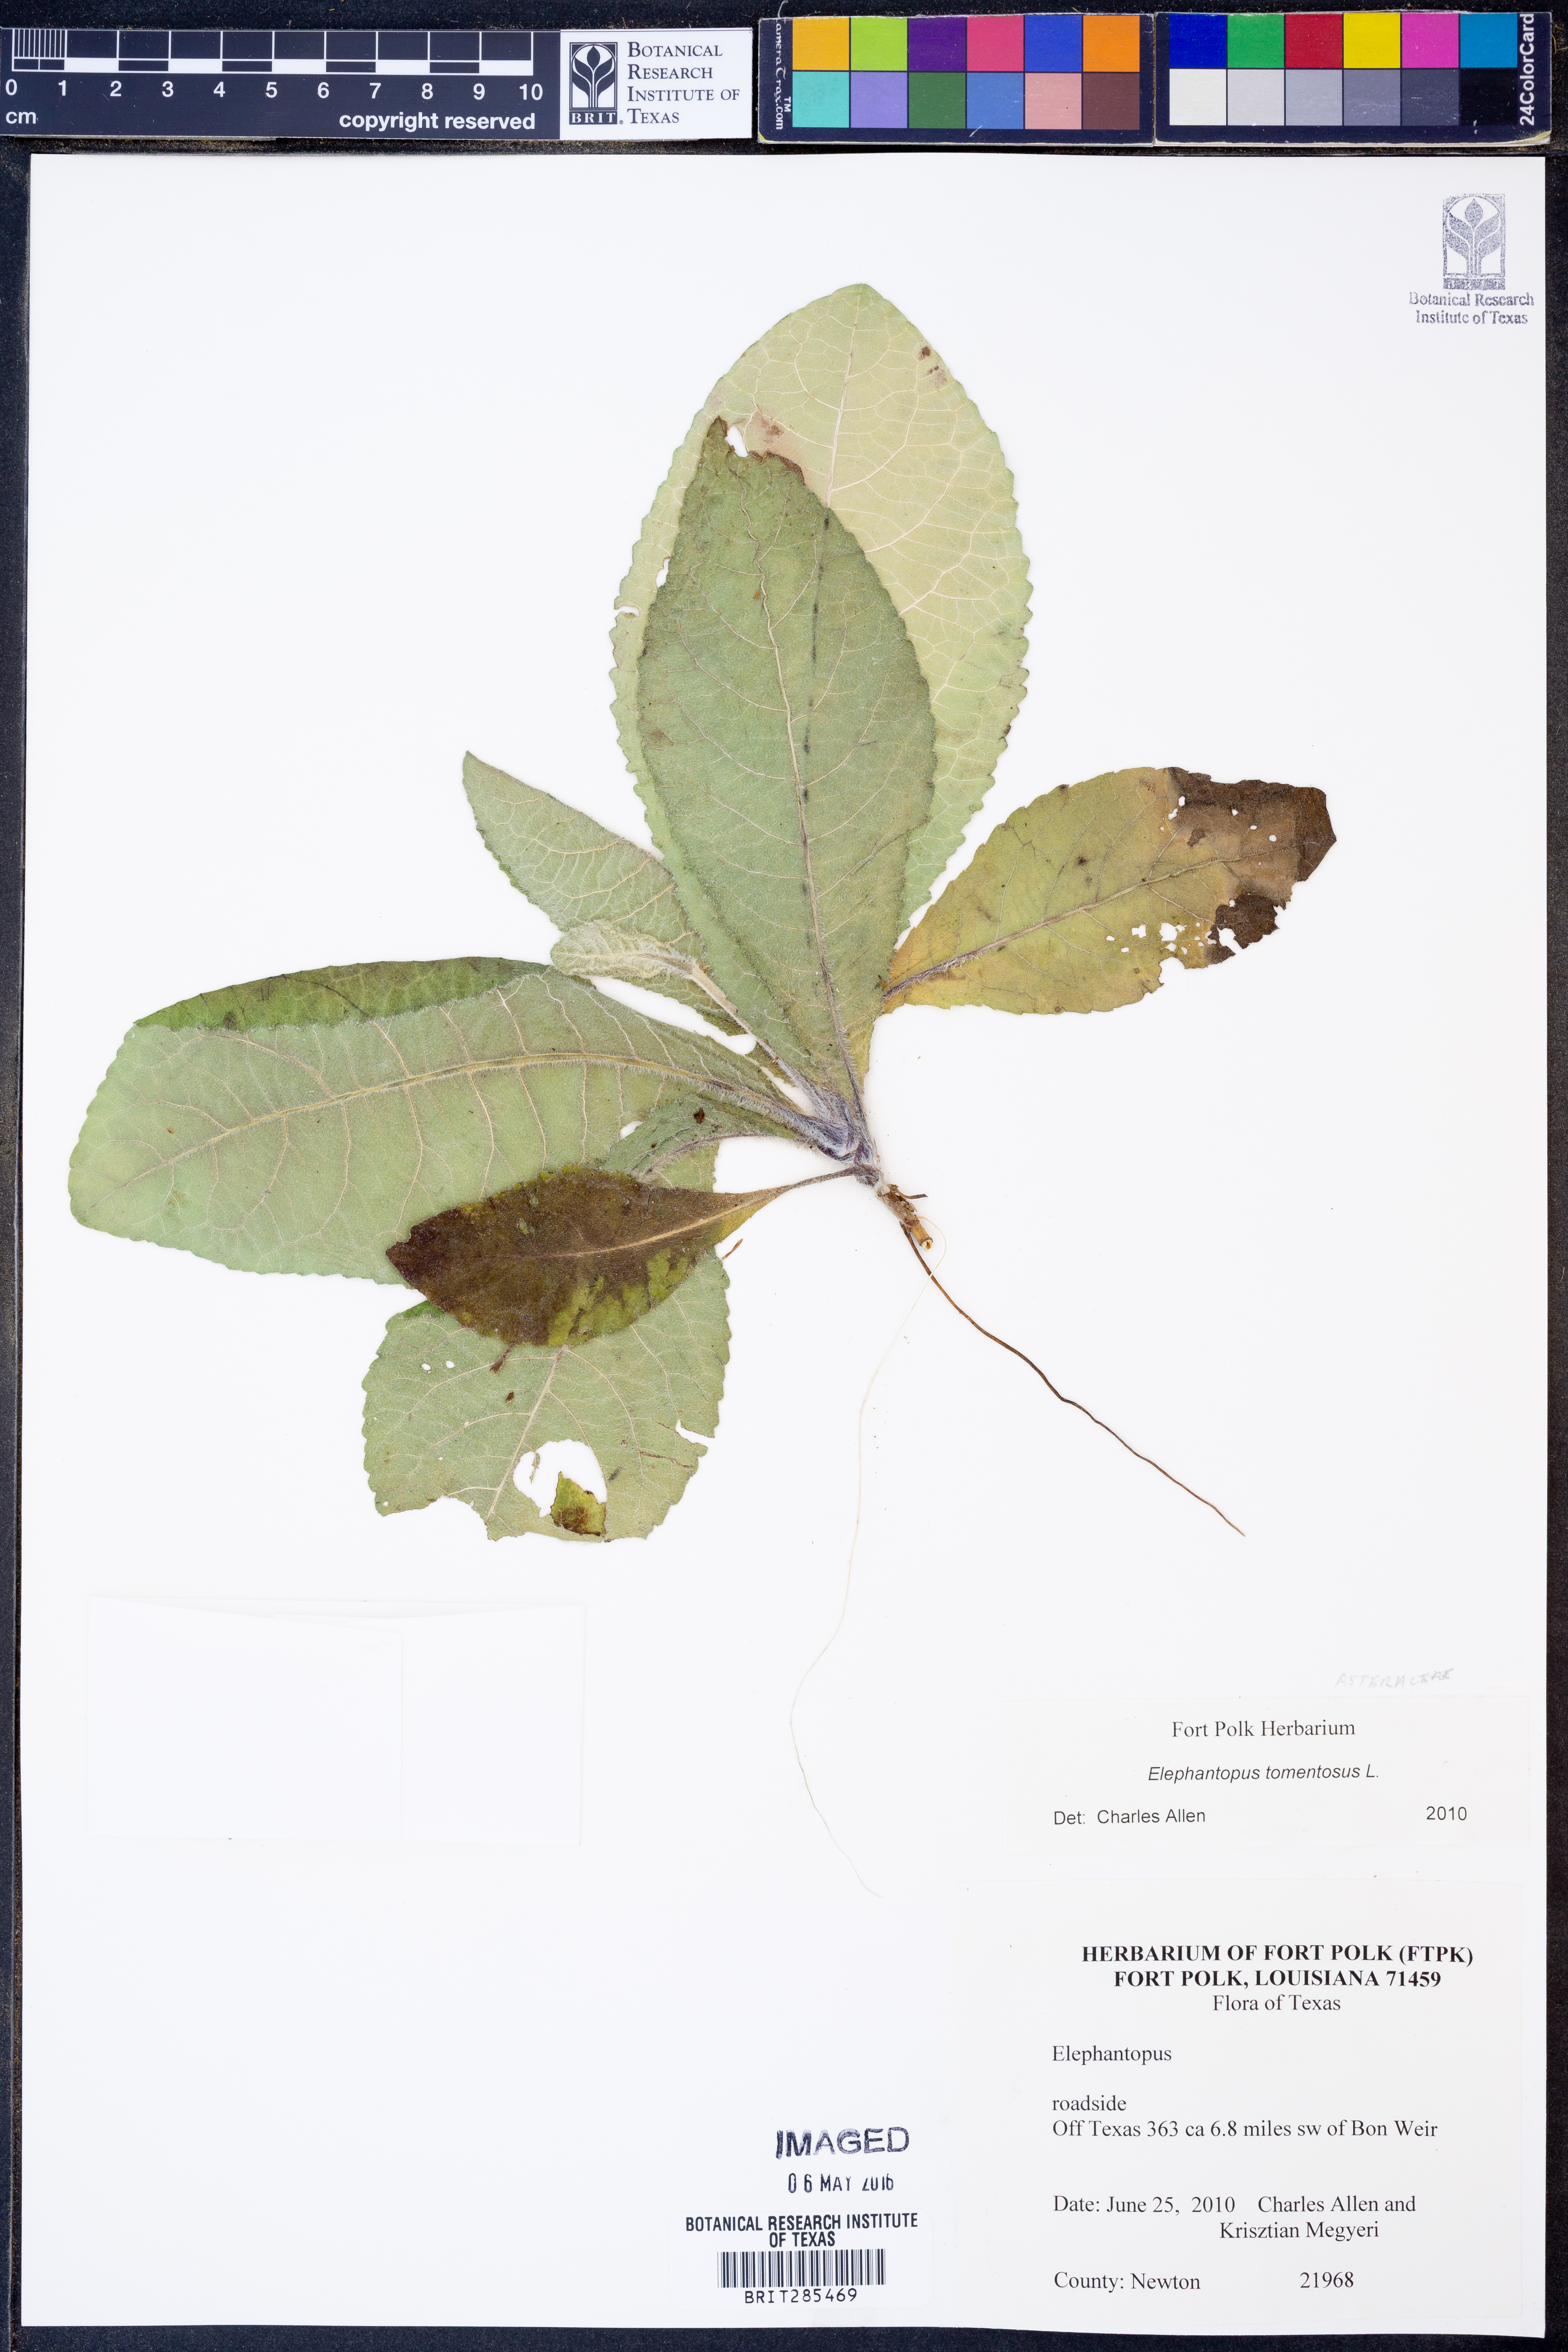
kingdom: Plantae
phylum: Tracheophyta
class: Magnoliopsida
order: Asterales
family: Asteraceae
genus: Elephantopus
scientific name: Elephantopus tomentosus
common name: Tobacco-weed
